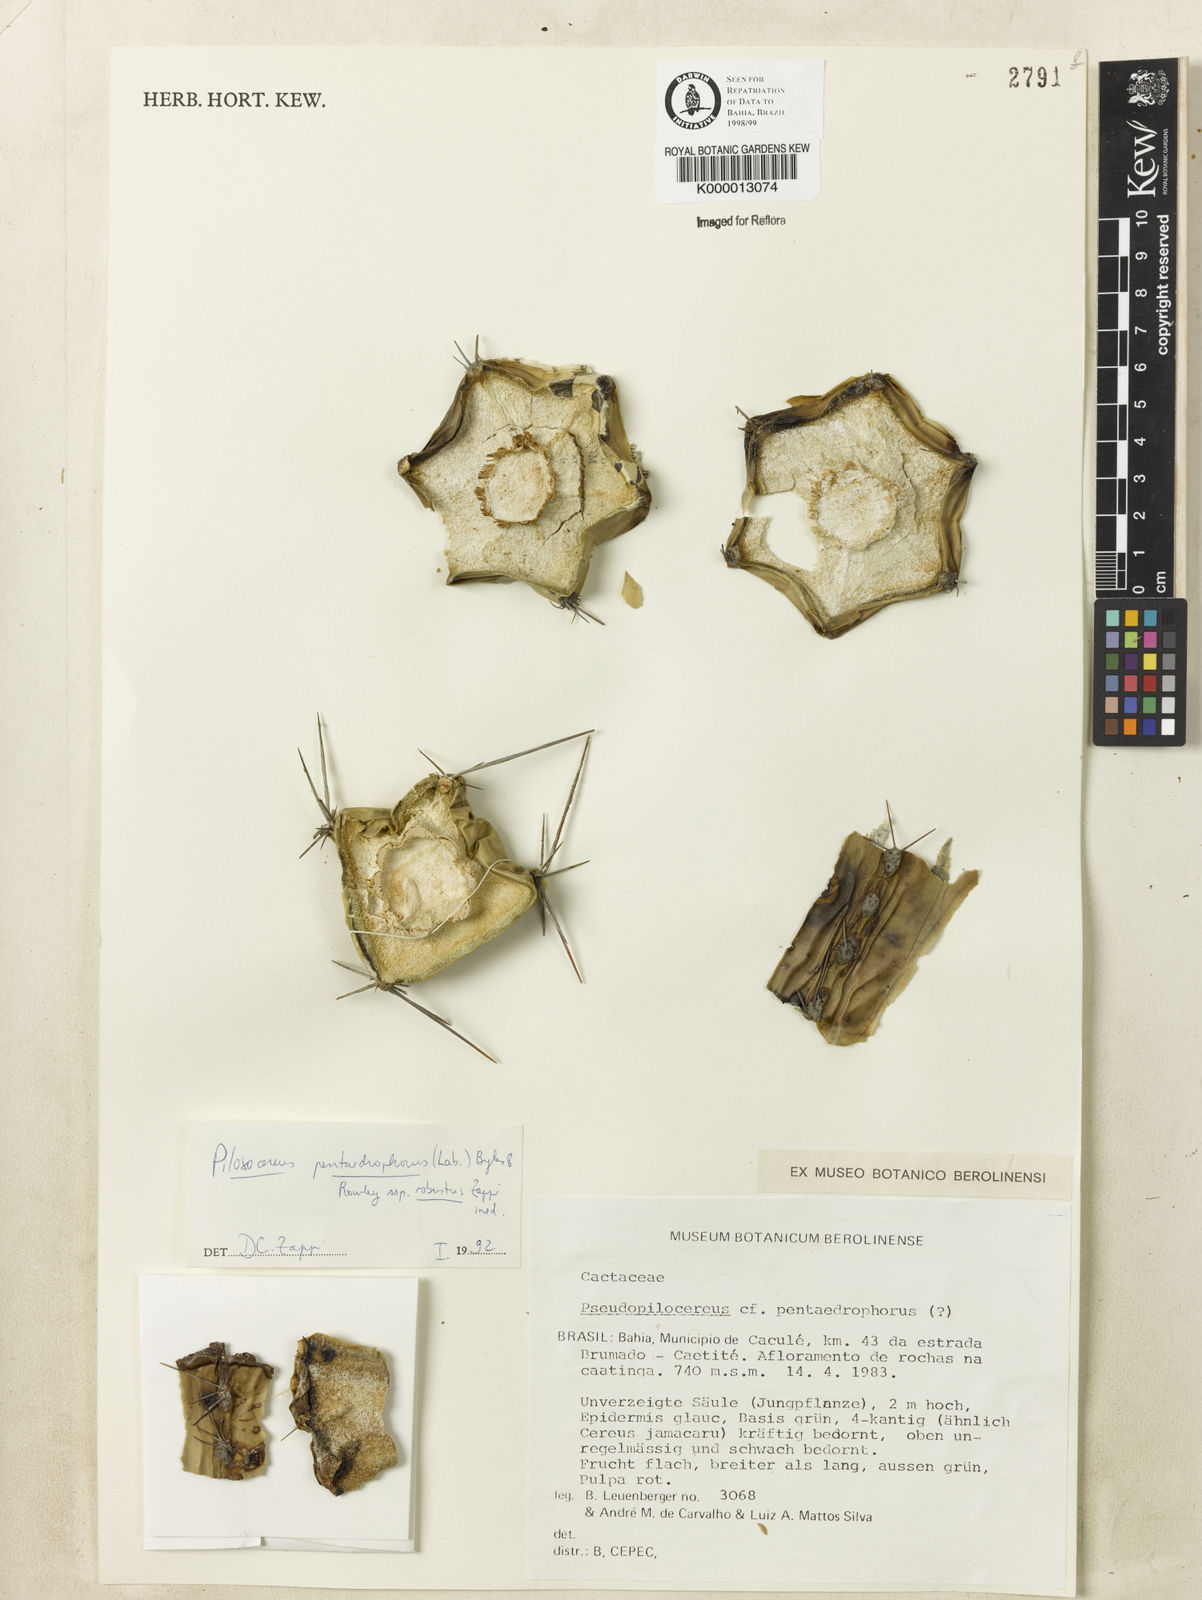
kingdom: Plantae
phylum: Tracheophyta
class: Magnoliopsida
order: Caryophyllales
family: Cactaceae
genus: Pilosocereus
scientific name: Pilosocereus pentaedrophorus
